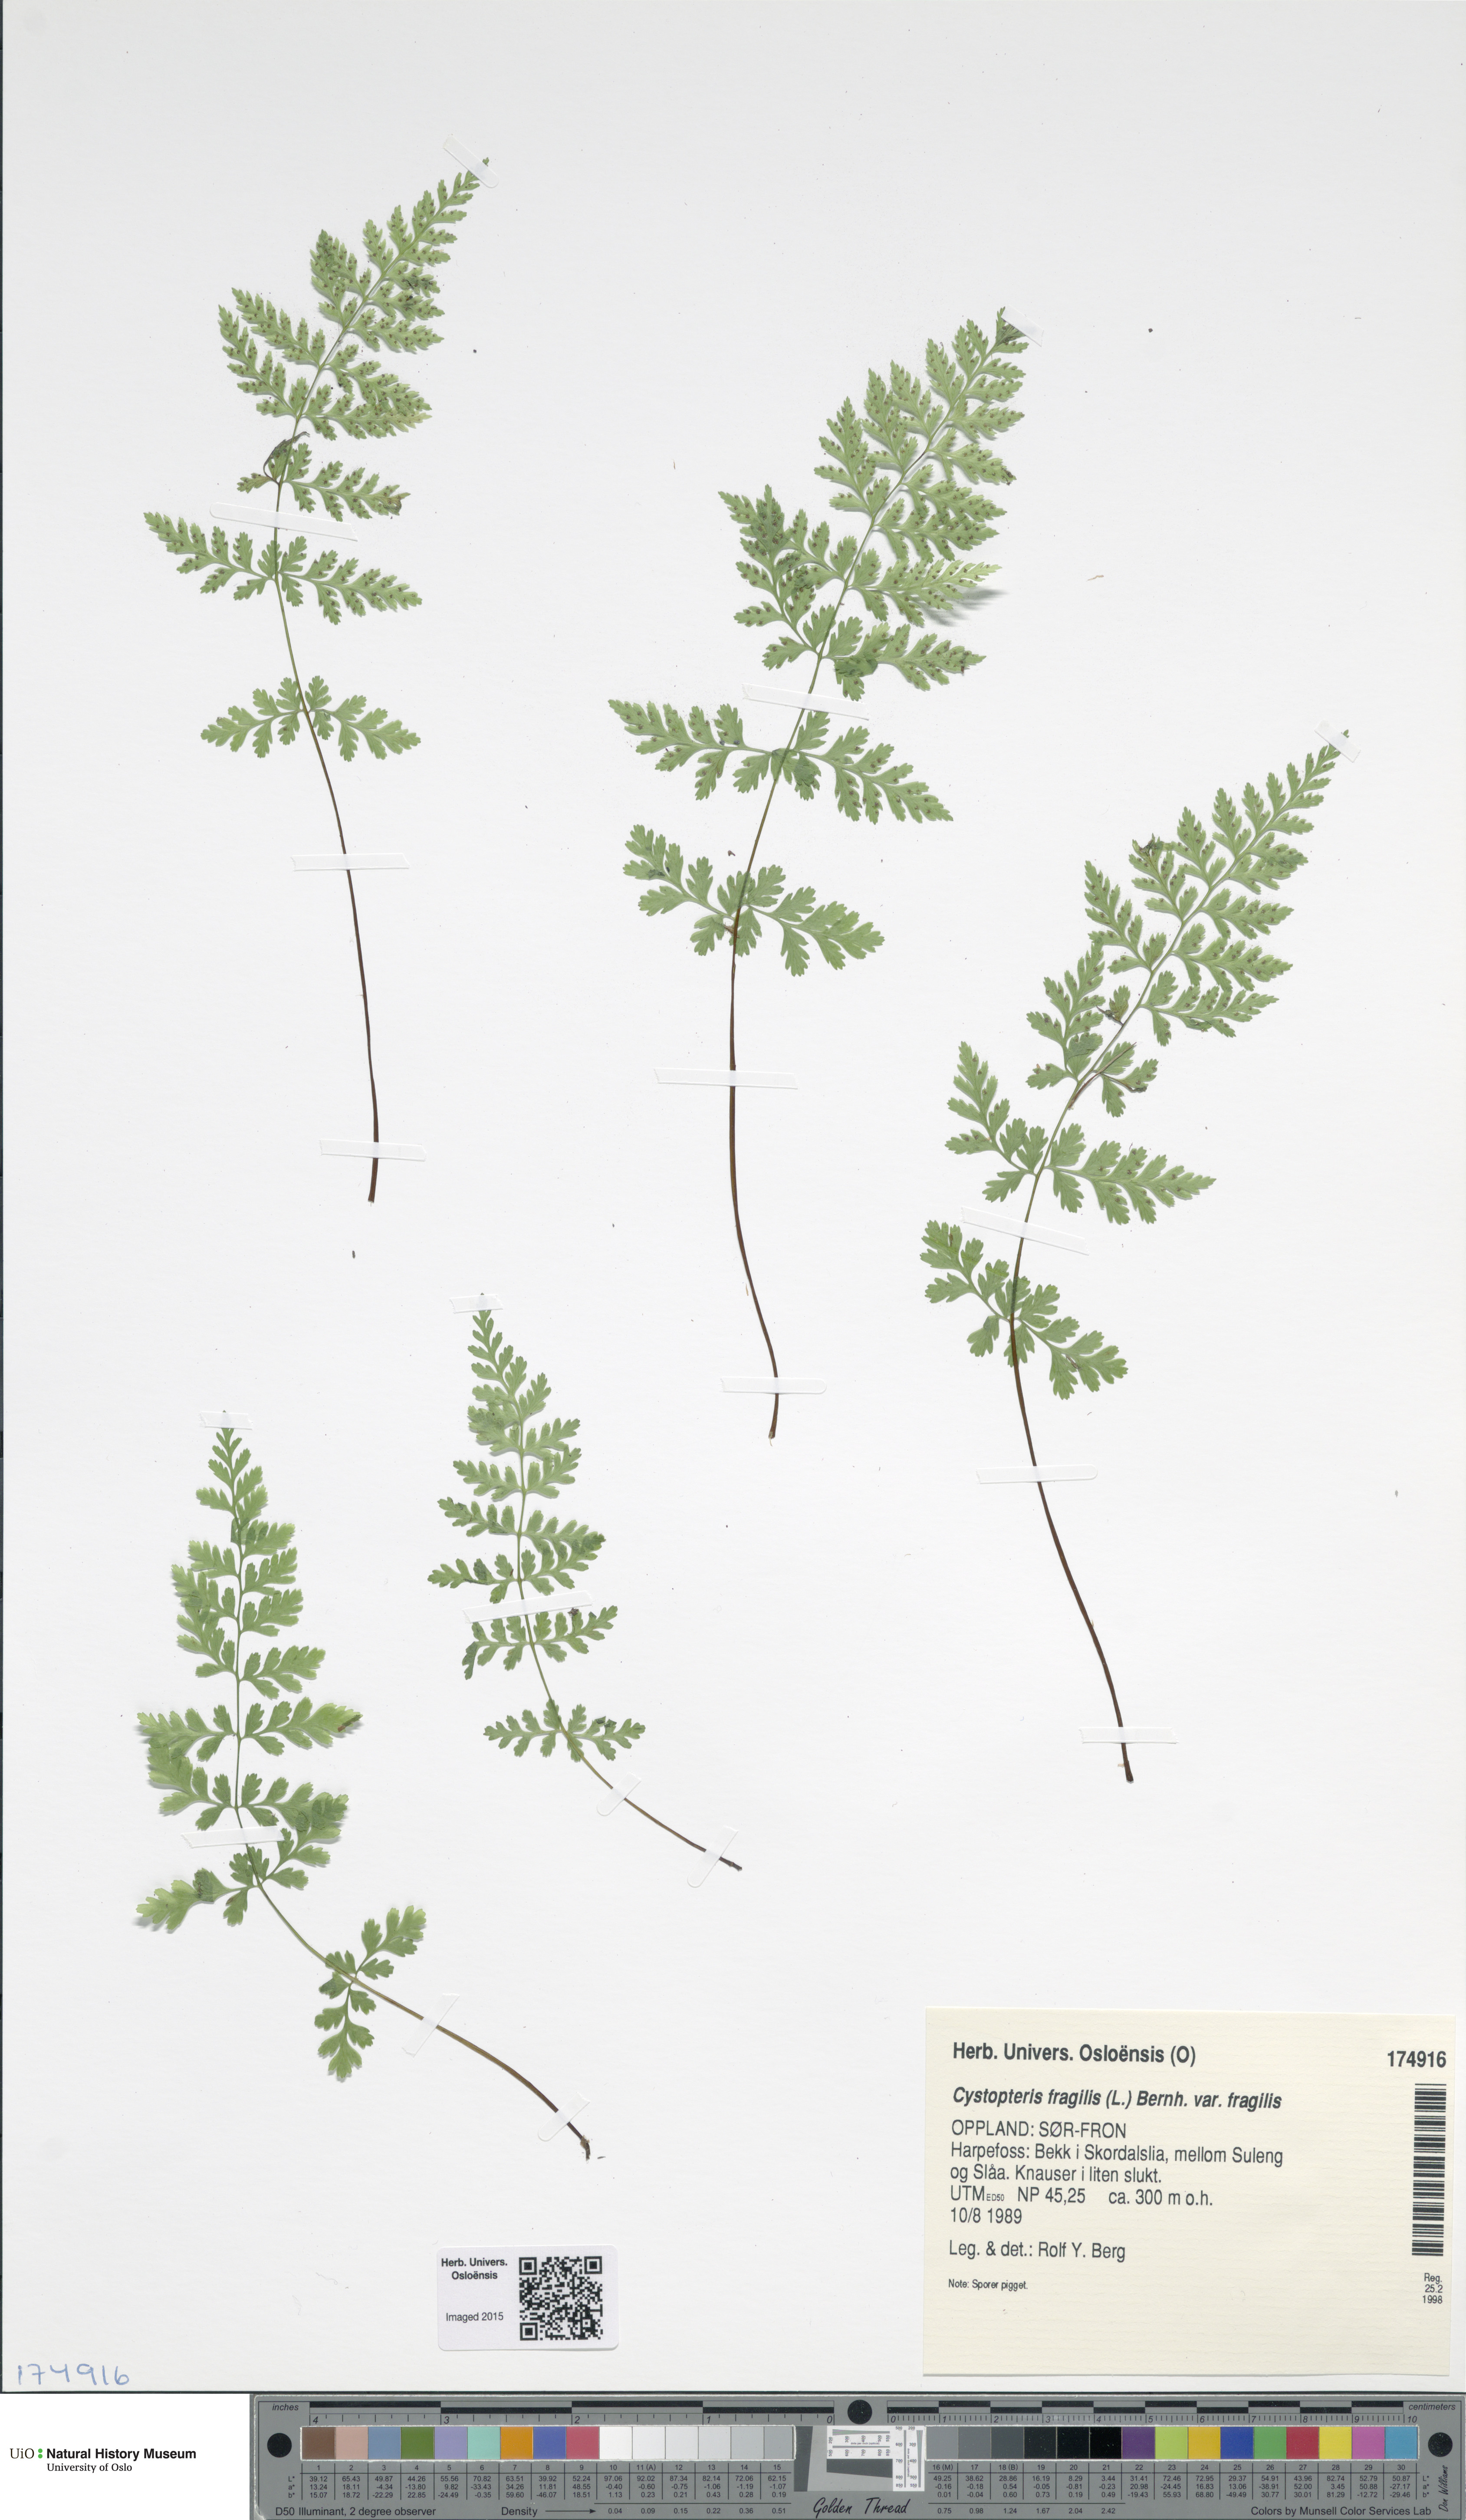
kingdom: Plantae
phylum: Tracheophyta
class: Polypodiopsida
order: Polypodiales
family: Cystopteridaceae
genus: Cystopteris
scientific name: Cystopteris fragilis
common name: Brittle bladder fern
